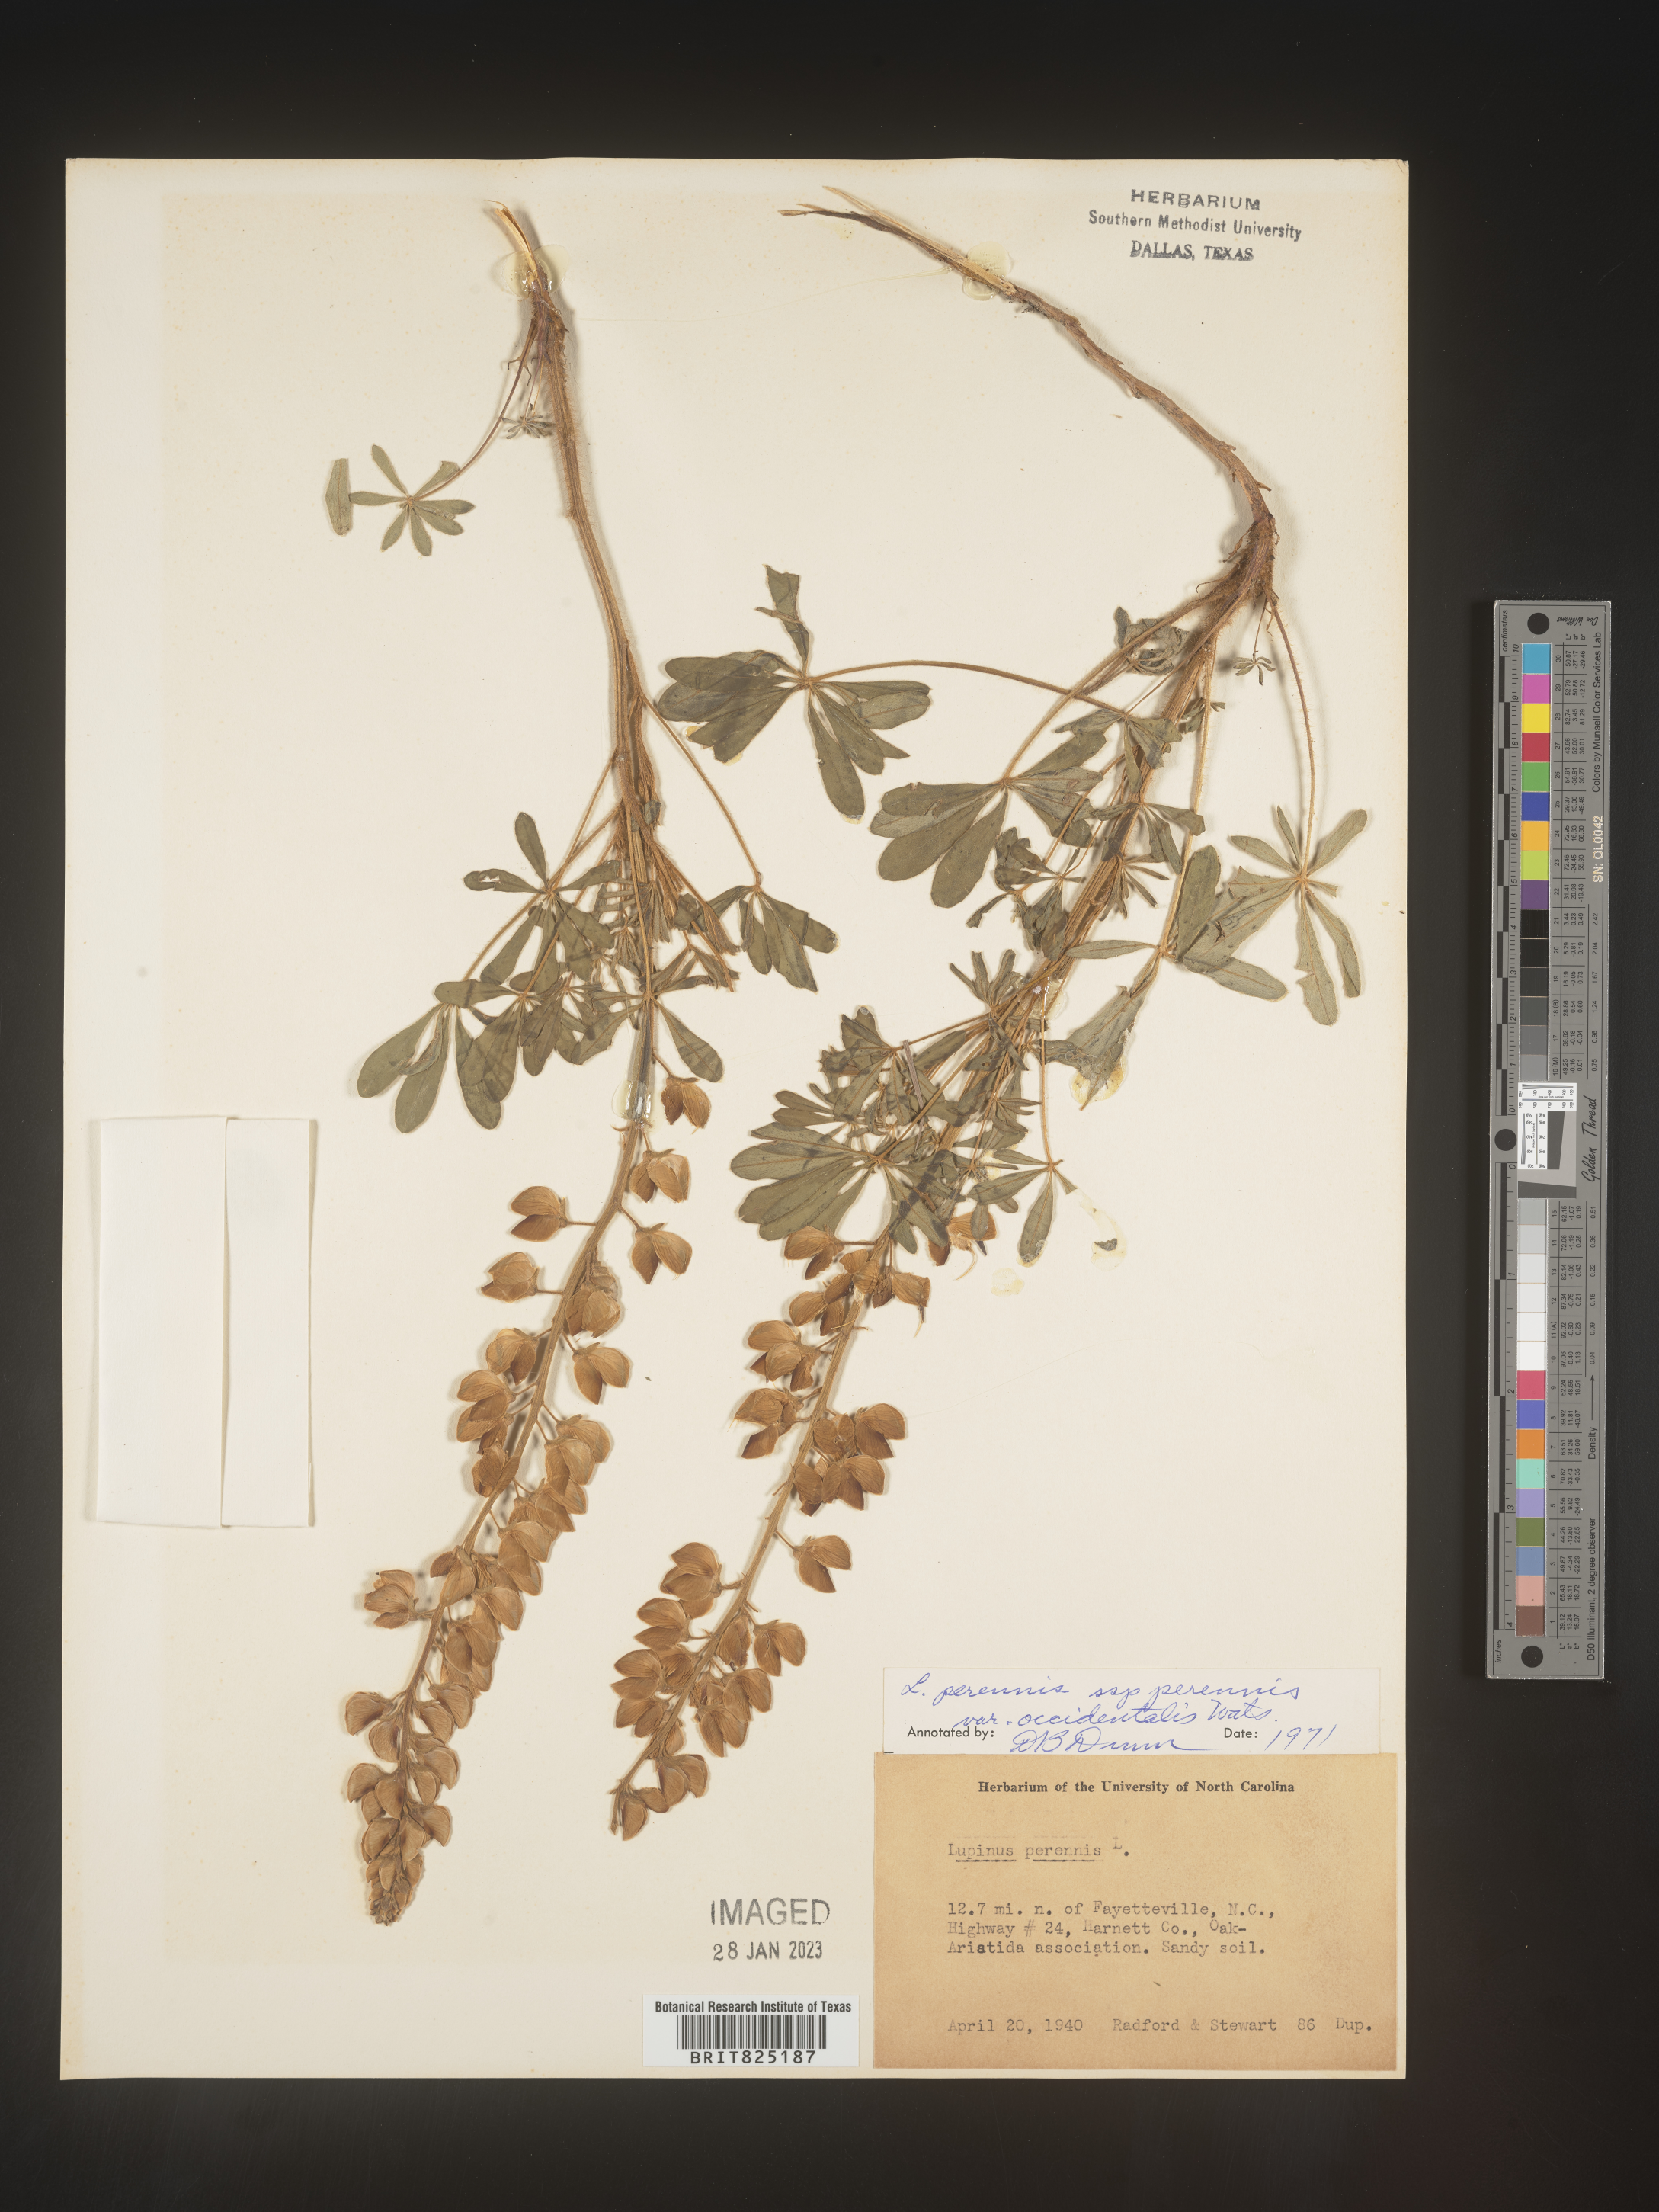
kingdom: Plantae
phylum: Tracheophyta
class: Magnoliopsida
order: Fabales
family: Fabaceae
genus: Lupinus
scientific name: Lupinus perennis
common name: Sundial lupine
